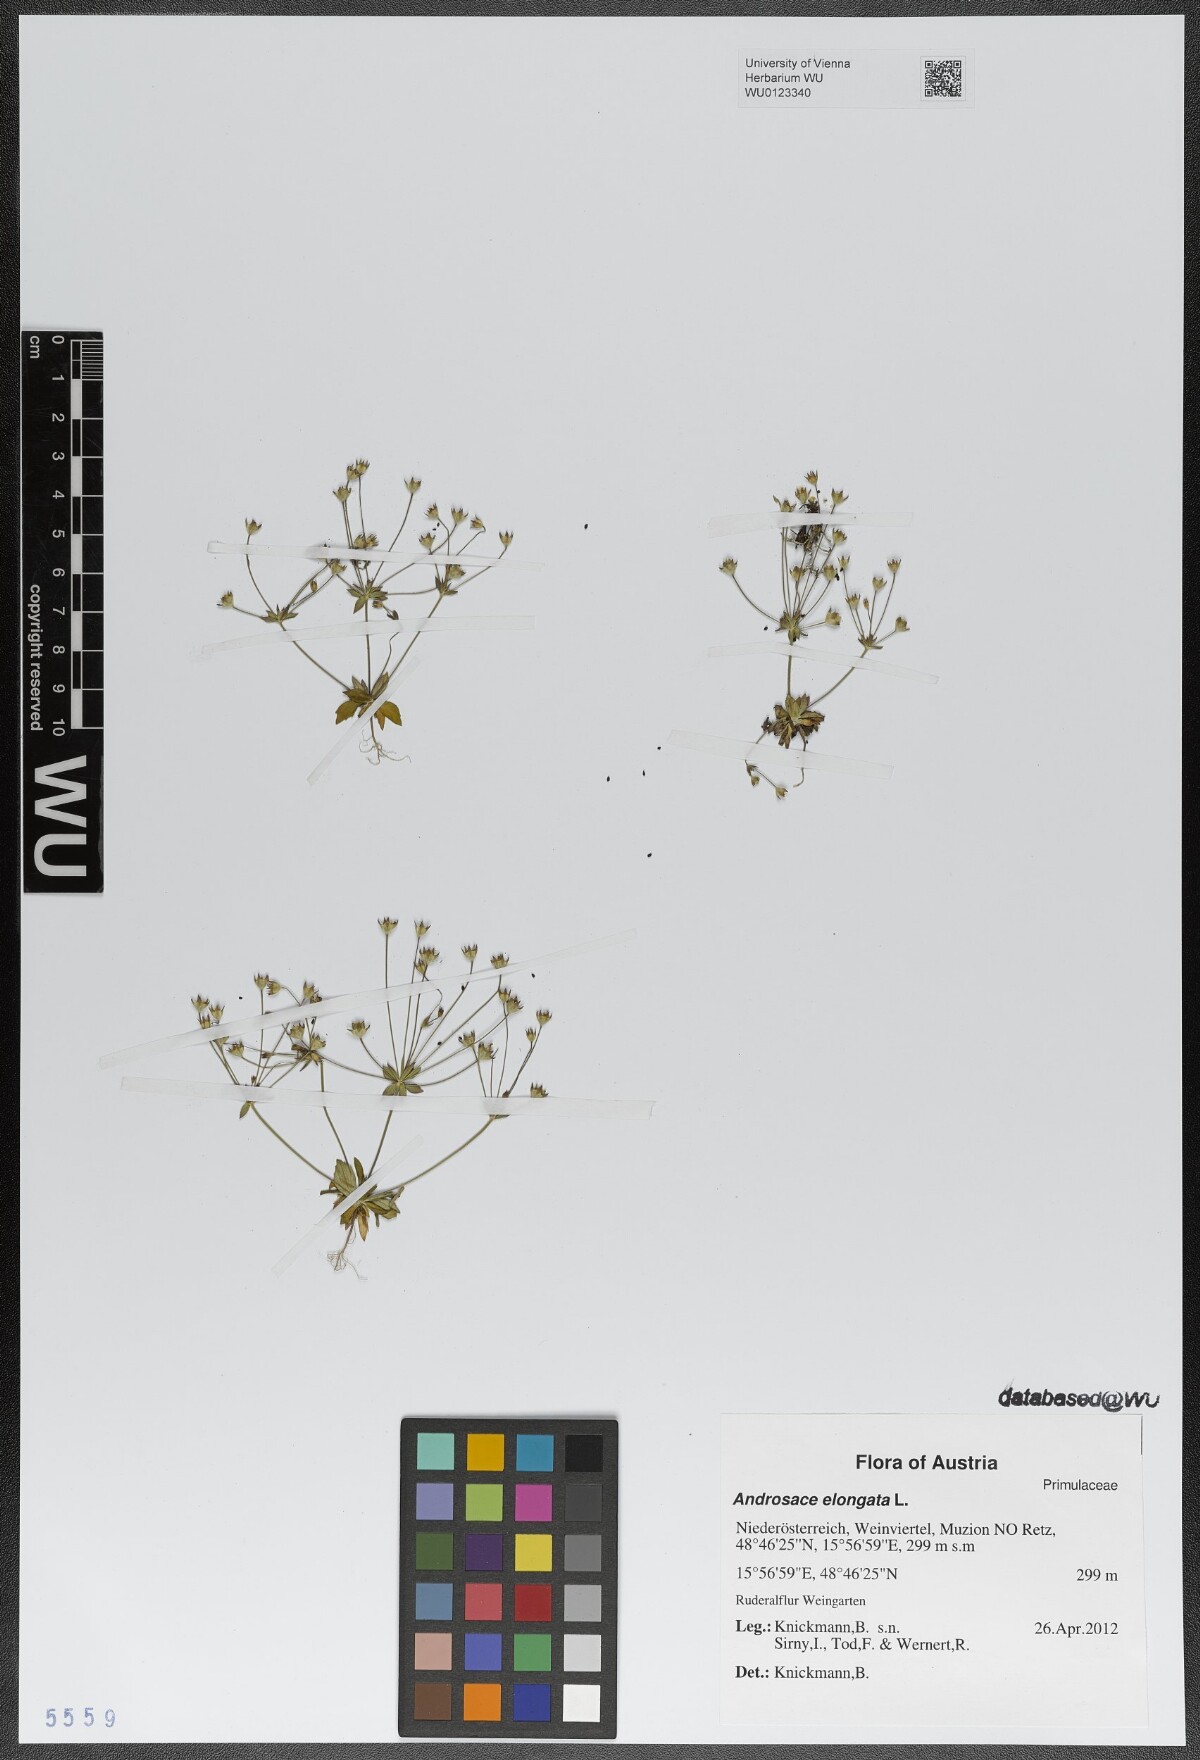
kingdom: Plantae
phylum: Tracheophyta
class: Magnoliopsida
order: Ericales
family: Primulaceae
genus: Androsace
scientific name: Androsace elongata
